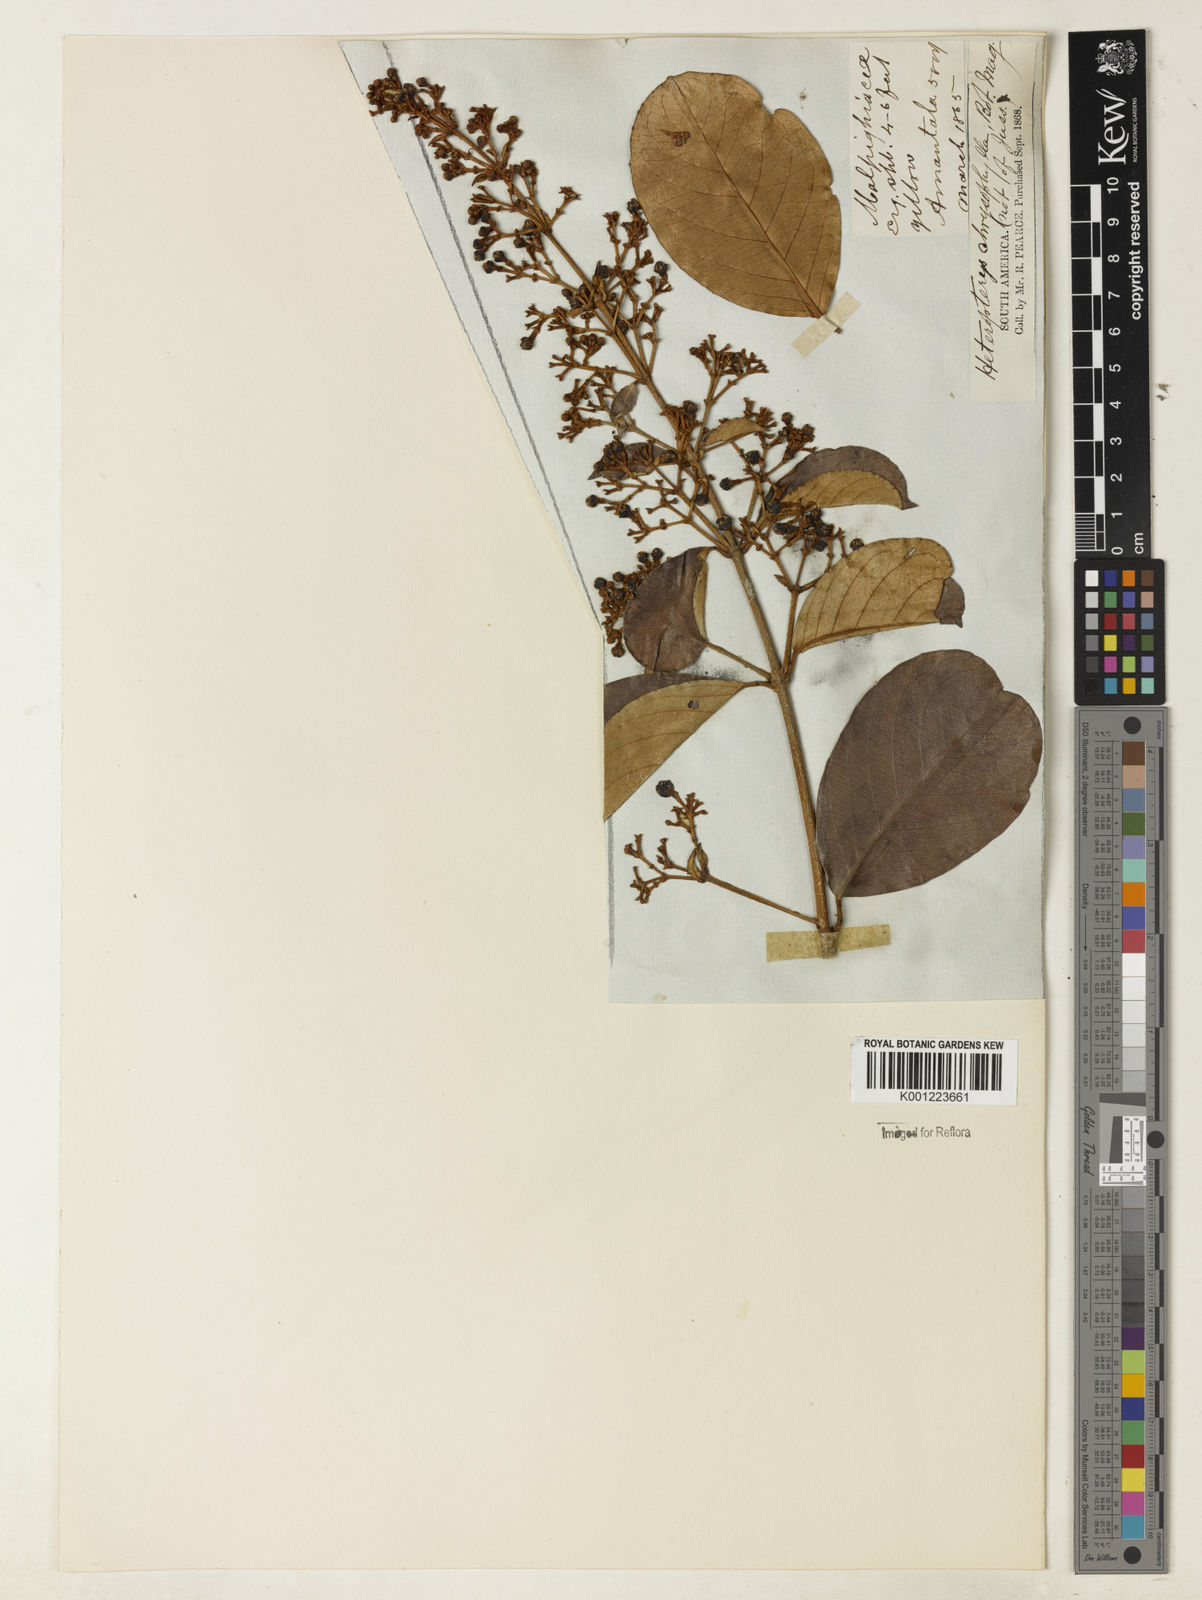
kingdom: Plantae
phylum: Tracheophyta
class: Magnoliopsida
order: Malpighiales
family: Malpighiaceae
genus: Heteropterys
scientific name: Heteropterys macrostachya
